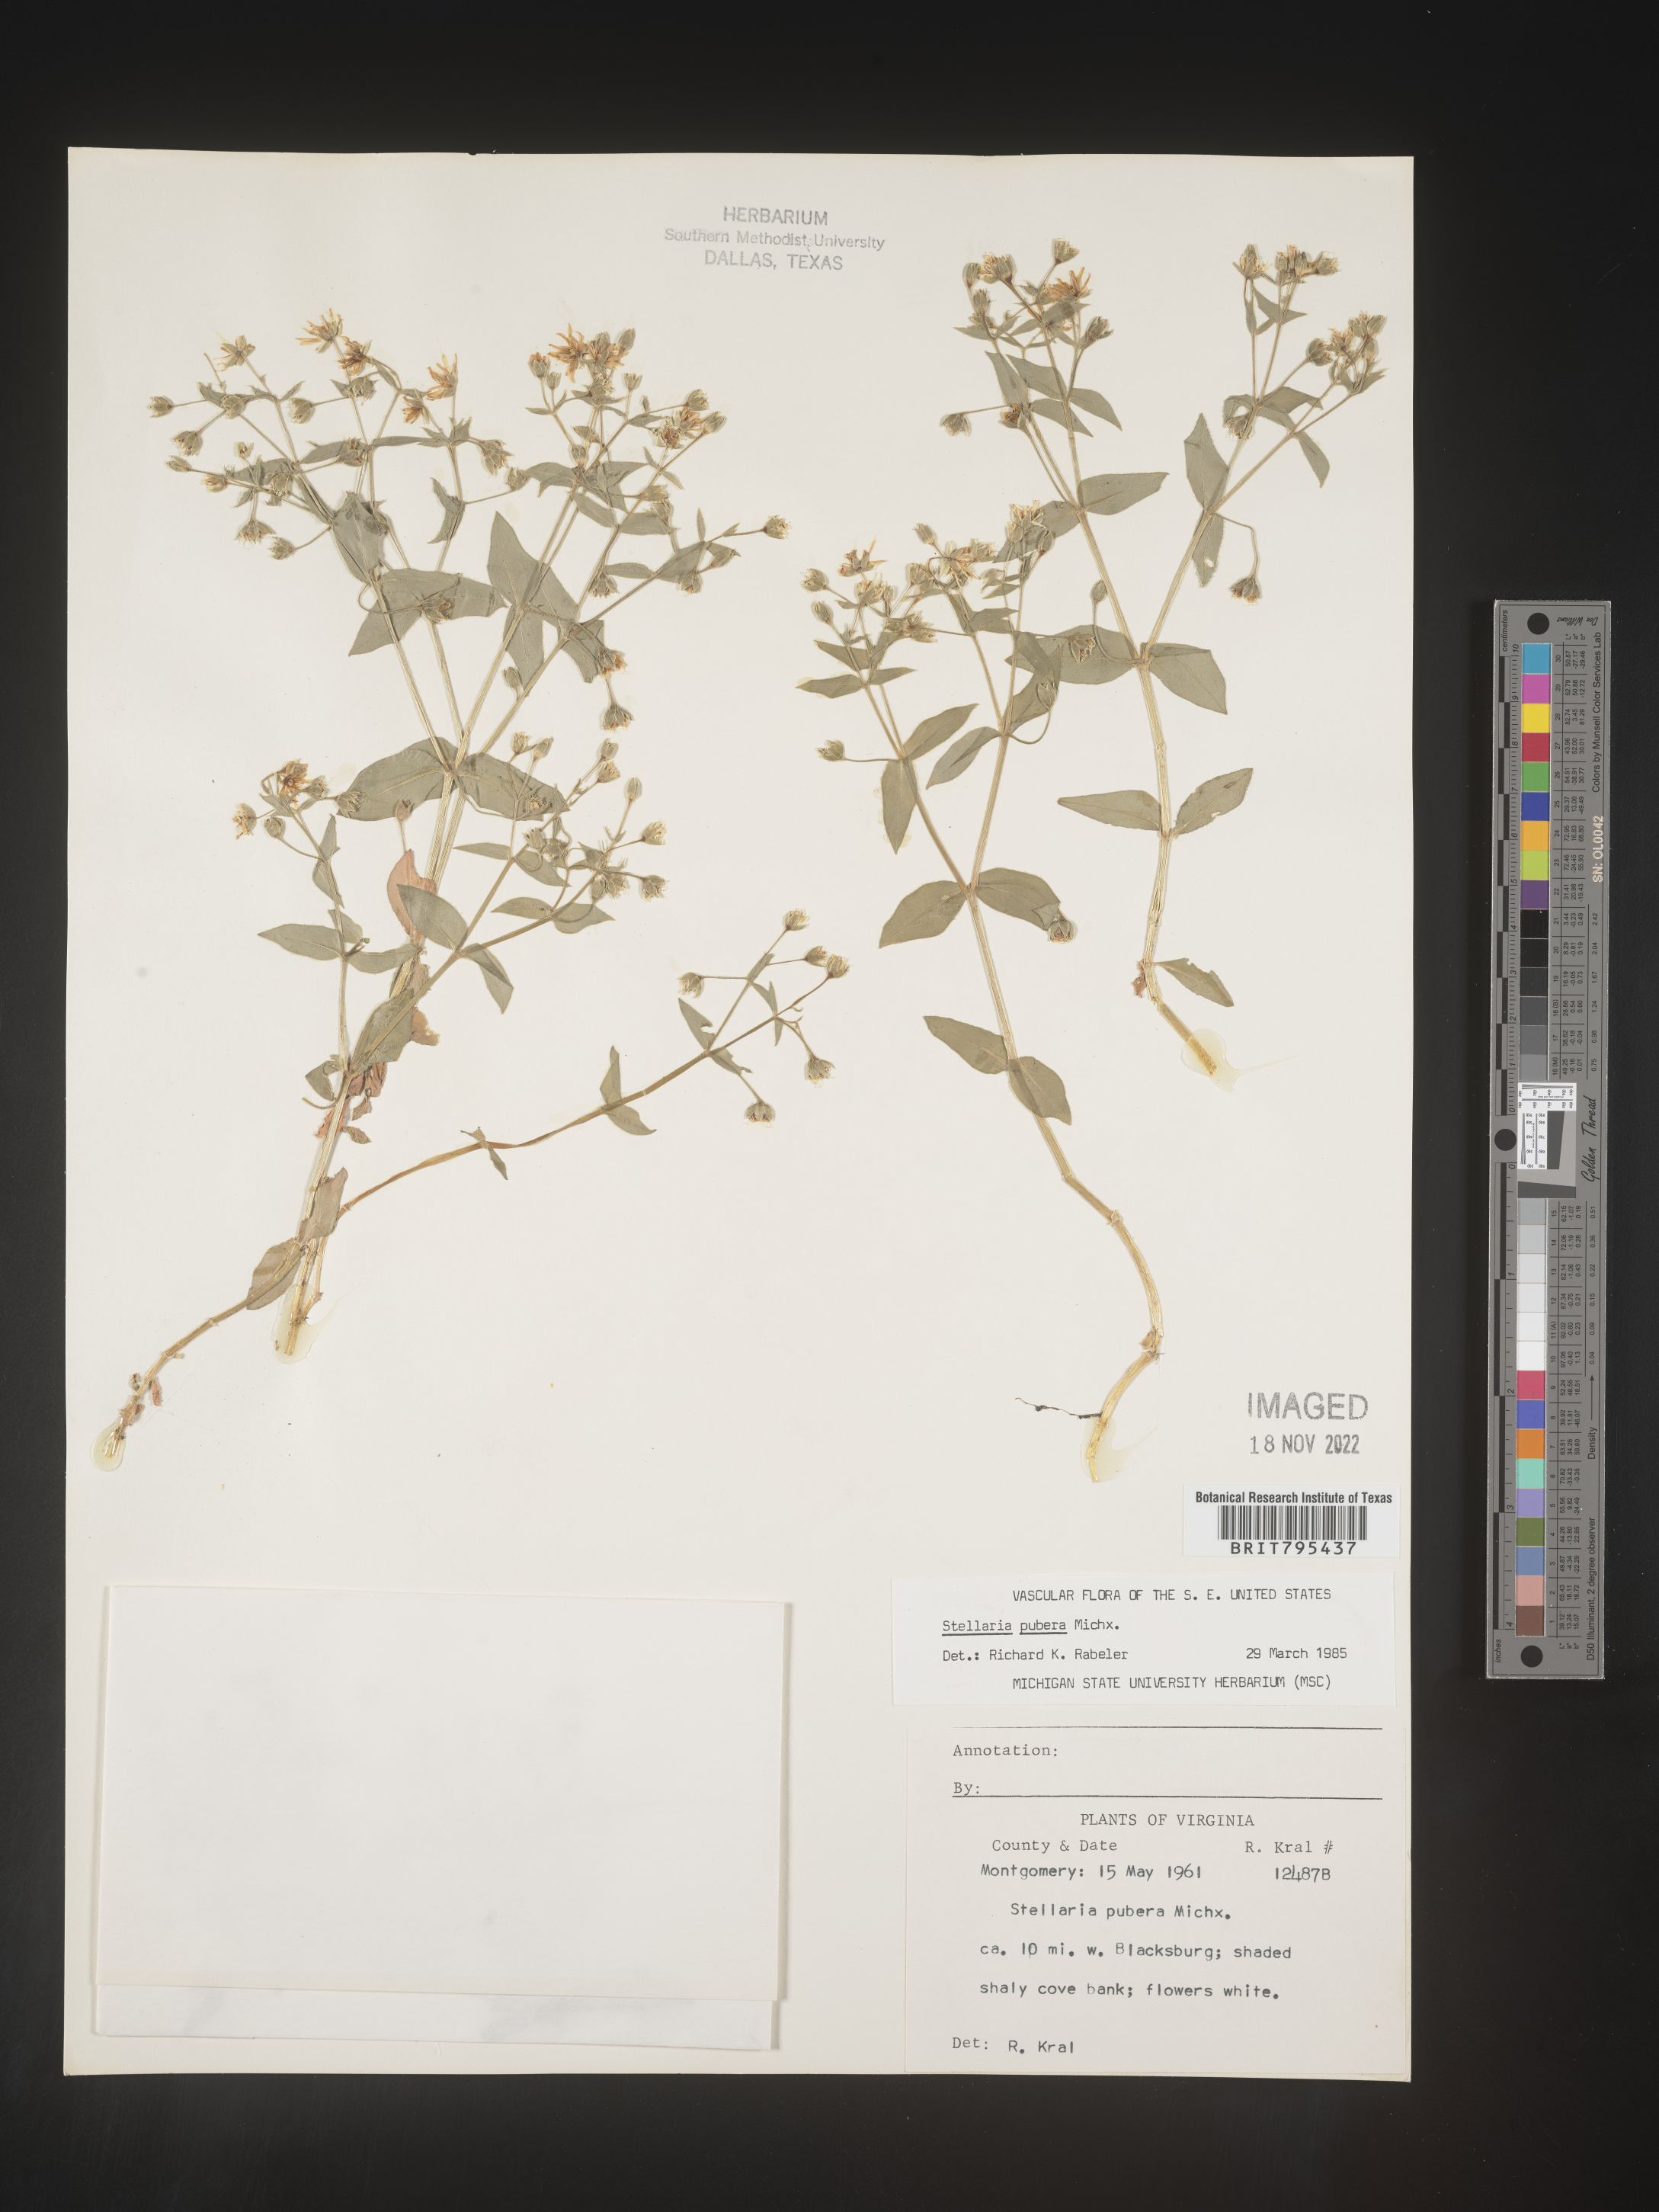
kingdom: Plantae
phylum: Tracheophyta
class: Magnoliopsida
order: Caryophyllales
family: Caryophyllaceae
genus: Stellaria
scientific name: Stellaria pubera
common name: Star chickweed
